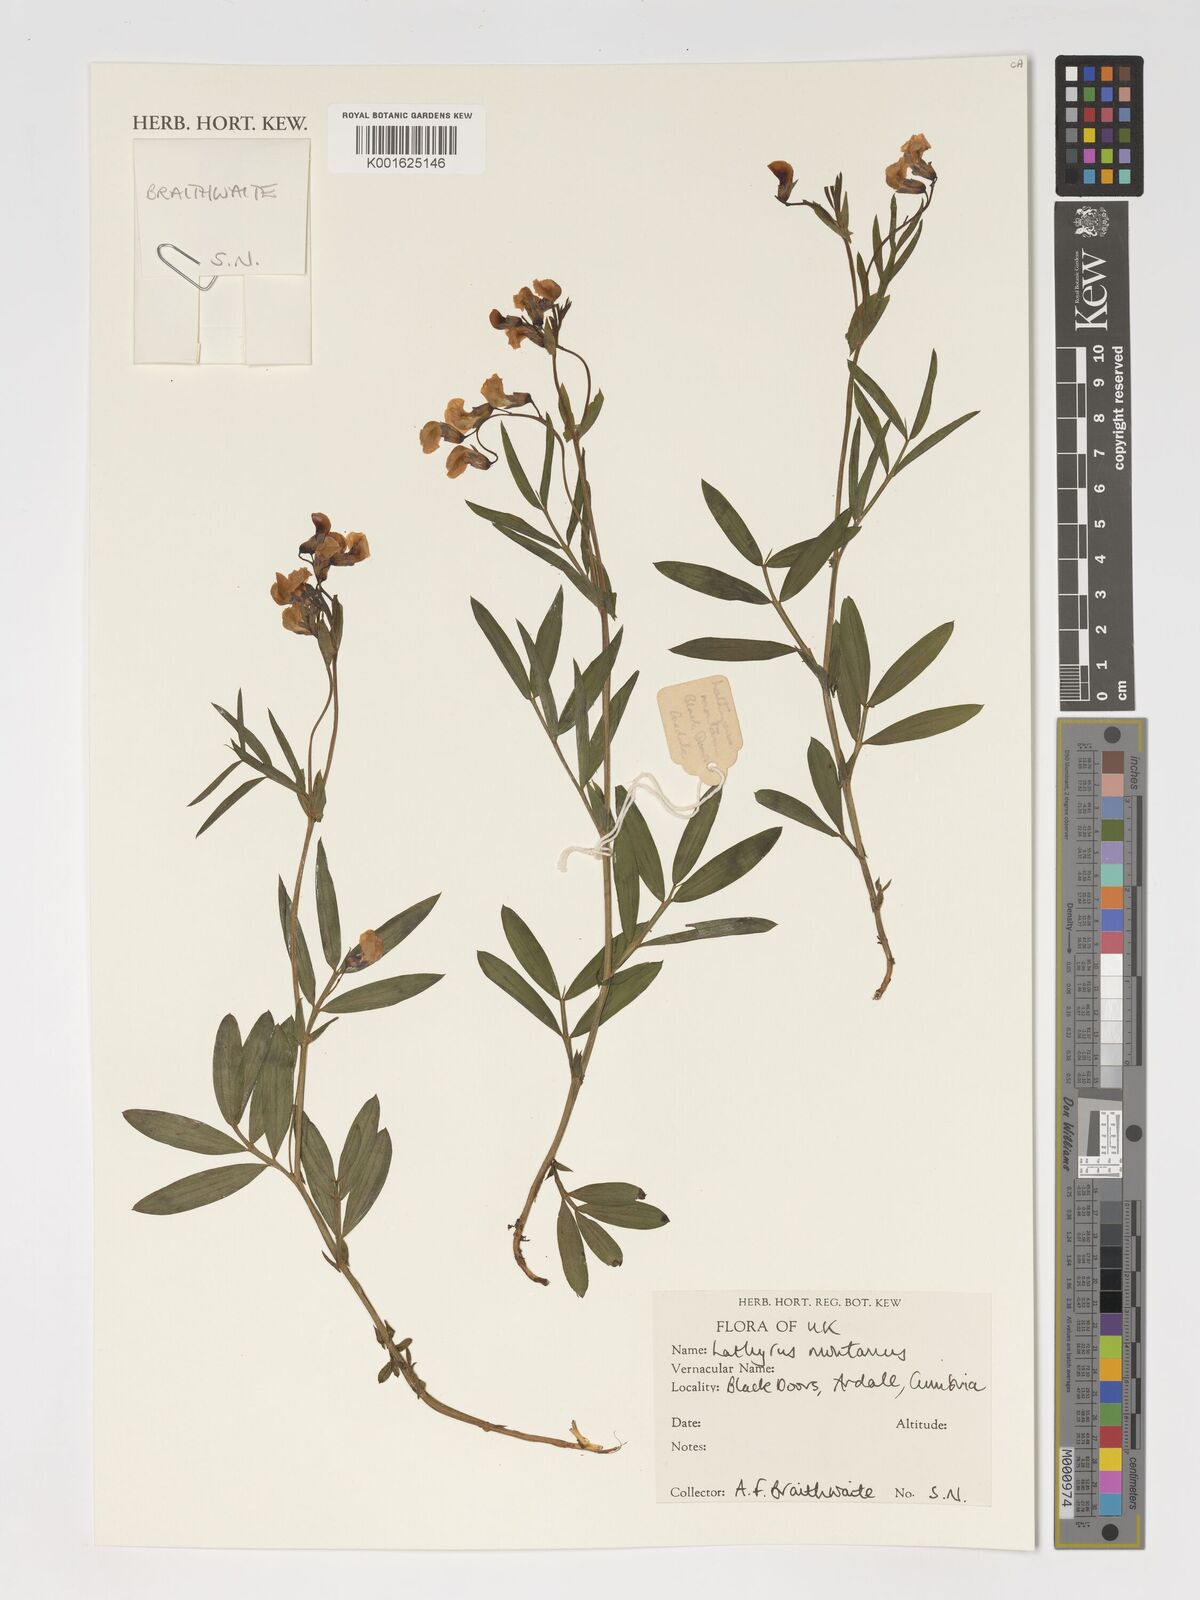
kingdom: Plantae
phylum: Tracheophyta
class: Magnoliopsida
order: Fabales
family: Fabaceae
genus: Lathyrus
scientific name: Lathyrus linifolius
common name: Bitter-vetch
